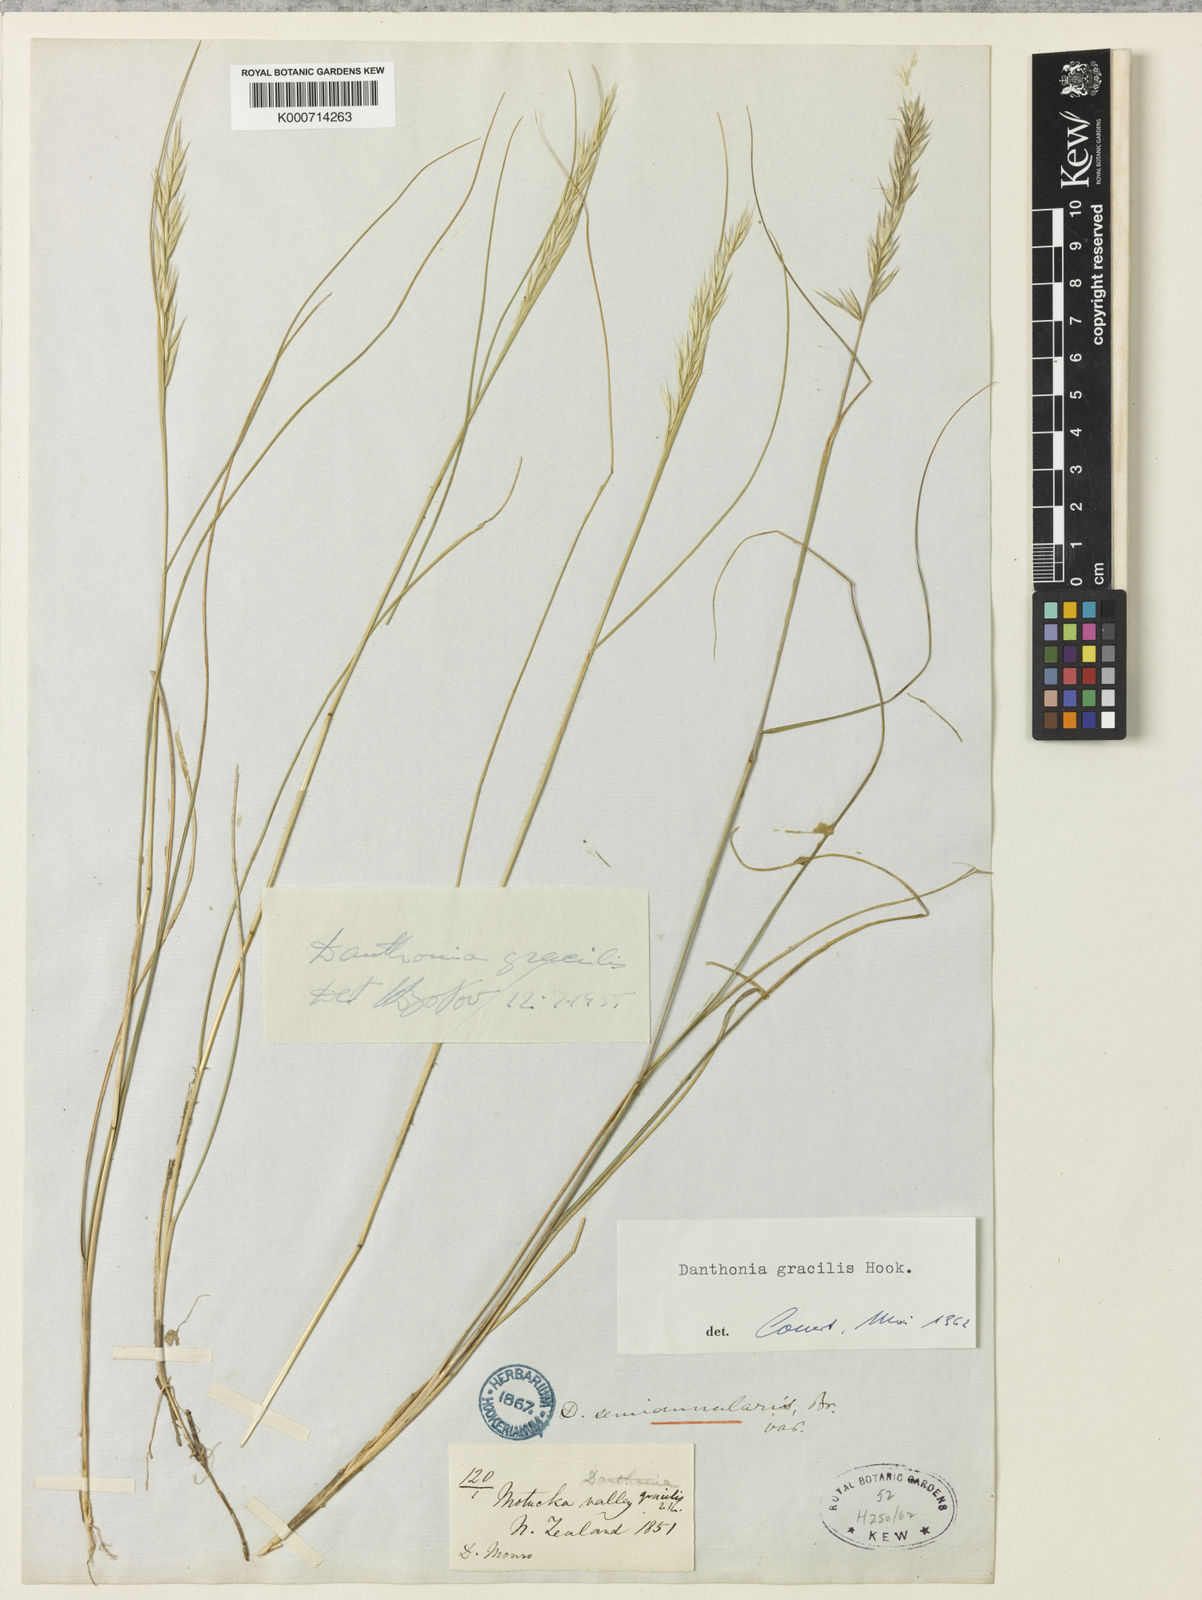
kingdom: Plantae
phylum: Tracheophyta
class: Liliopsida
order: Poales
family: Poaceae
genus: Rytidosperma
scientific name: Rytidosperma gracile
